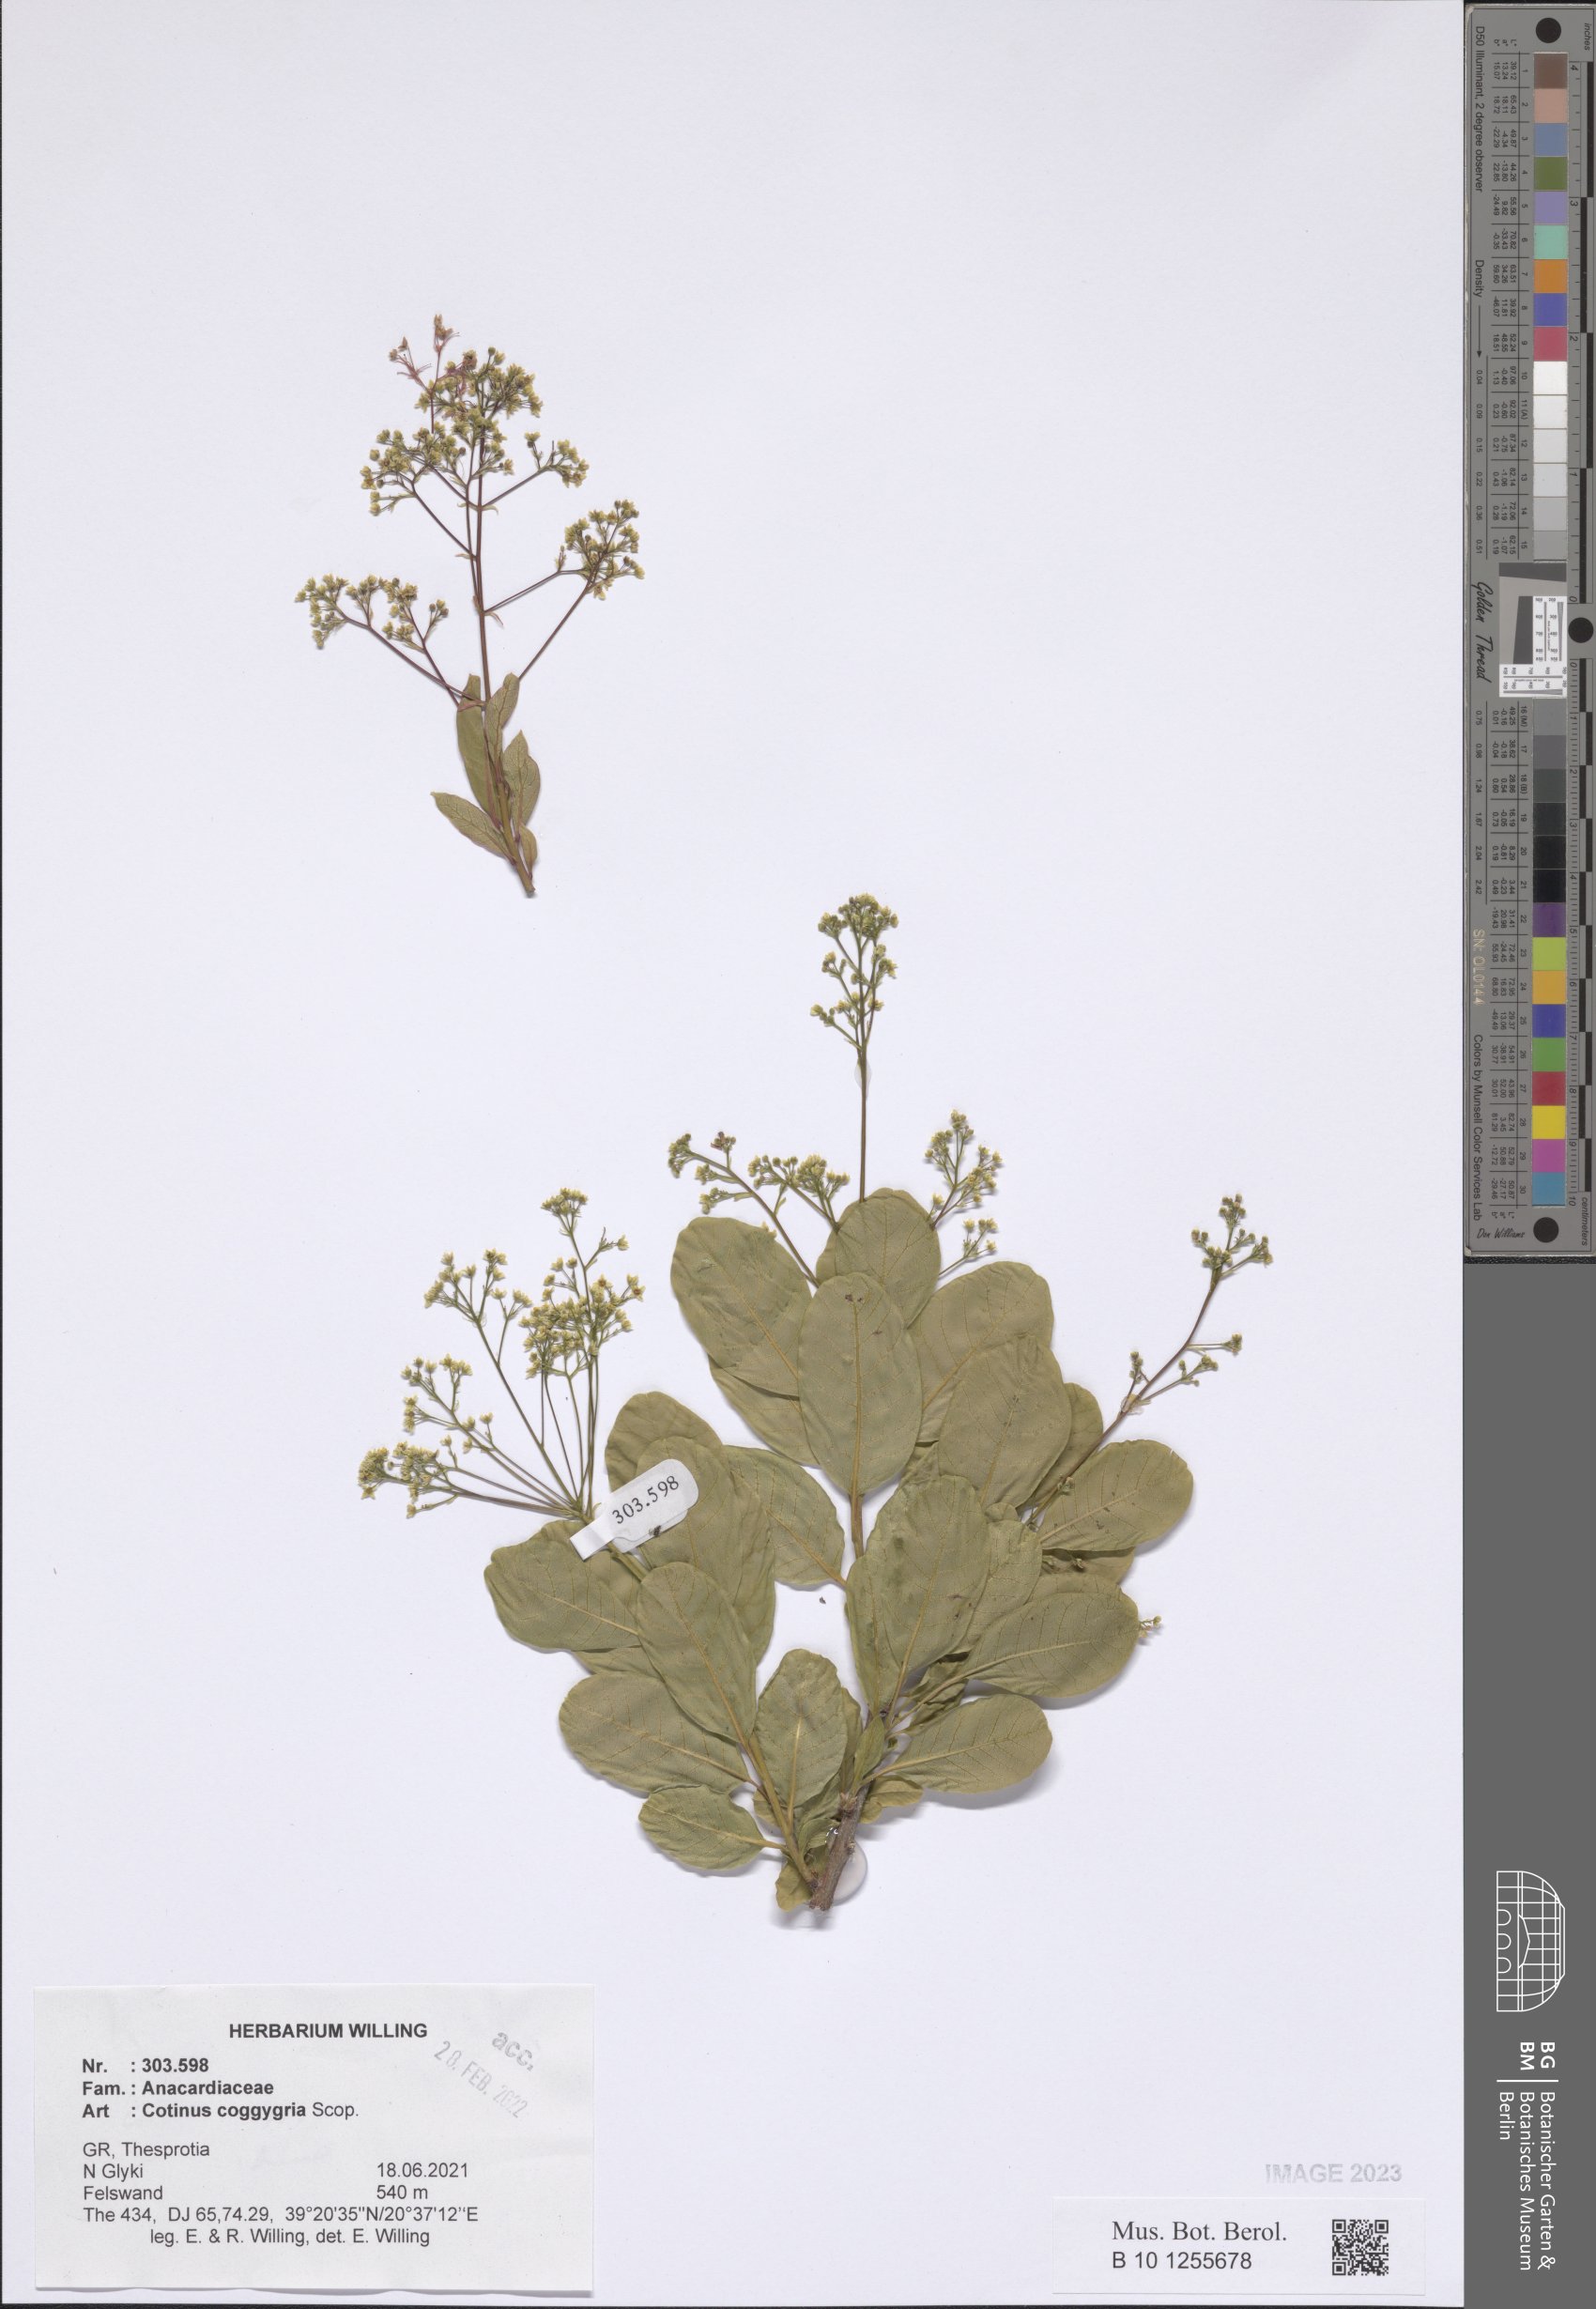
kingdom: Plantae
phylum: Tracheophyta
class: Magnoliopsida
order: Sapindales
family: Anacardiaceae
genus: Cotinus
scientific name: Cotinus coggygria
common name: Smoke-tree
